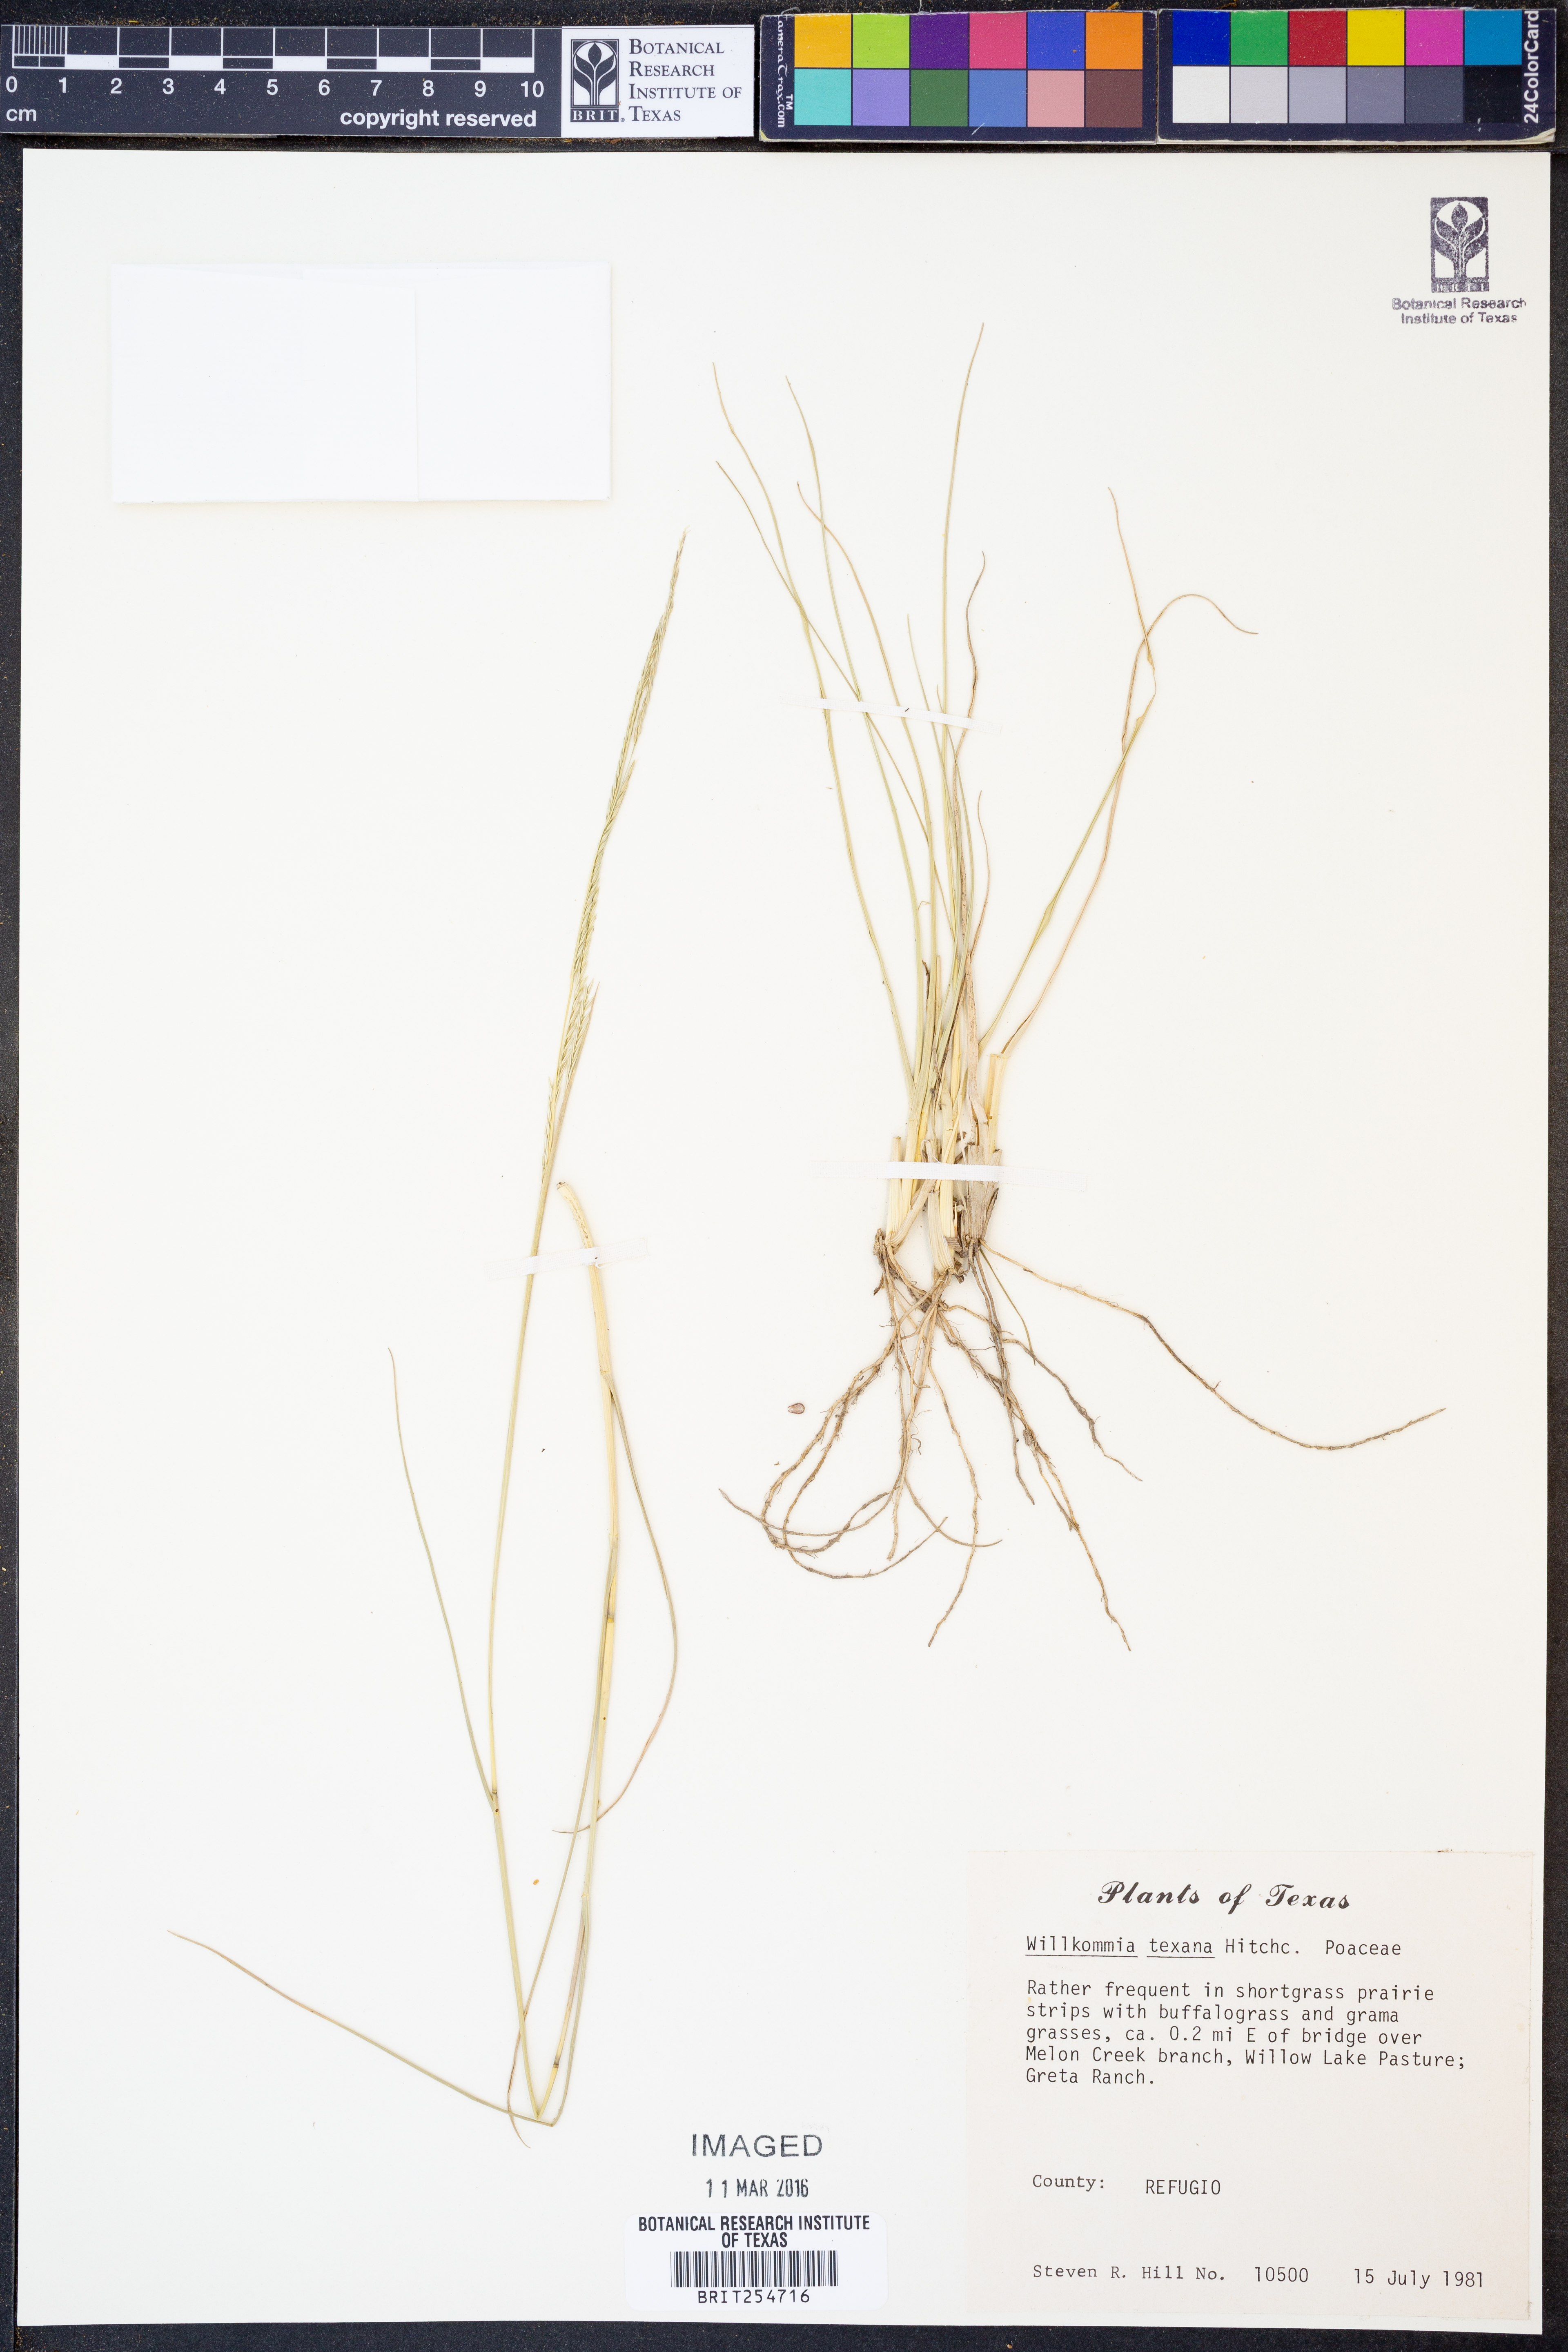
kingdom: Plantae
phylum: Tracheophyta
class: Liliopsida
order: Poales
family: Poaceae
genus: Willkommia
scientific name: Willkommia texana
